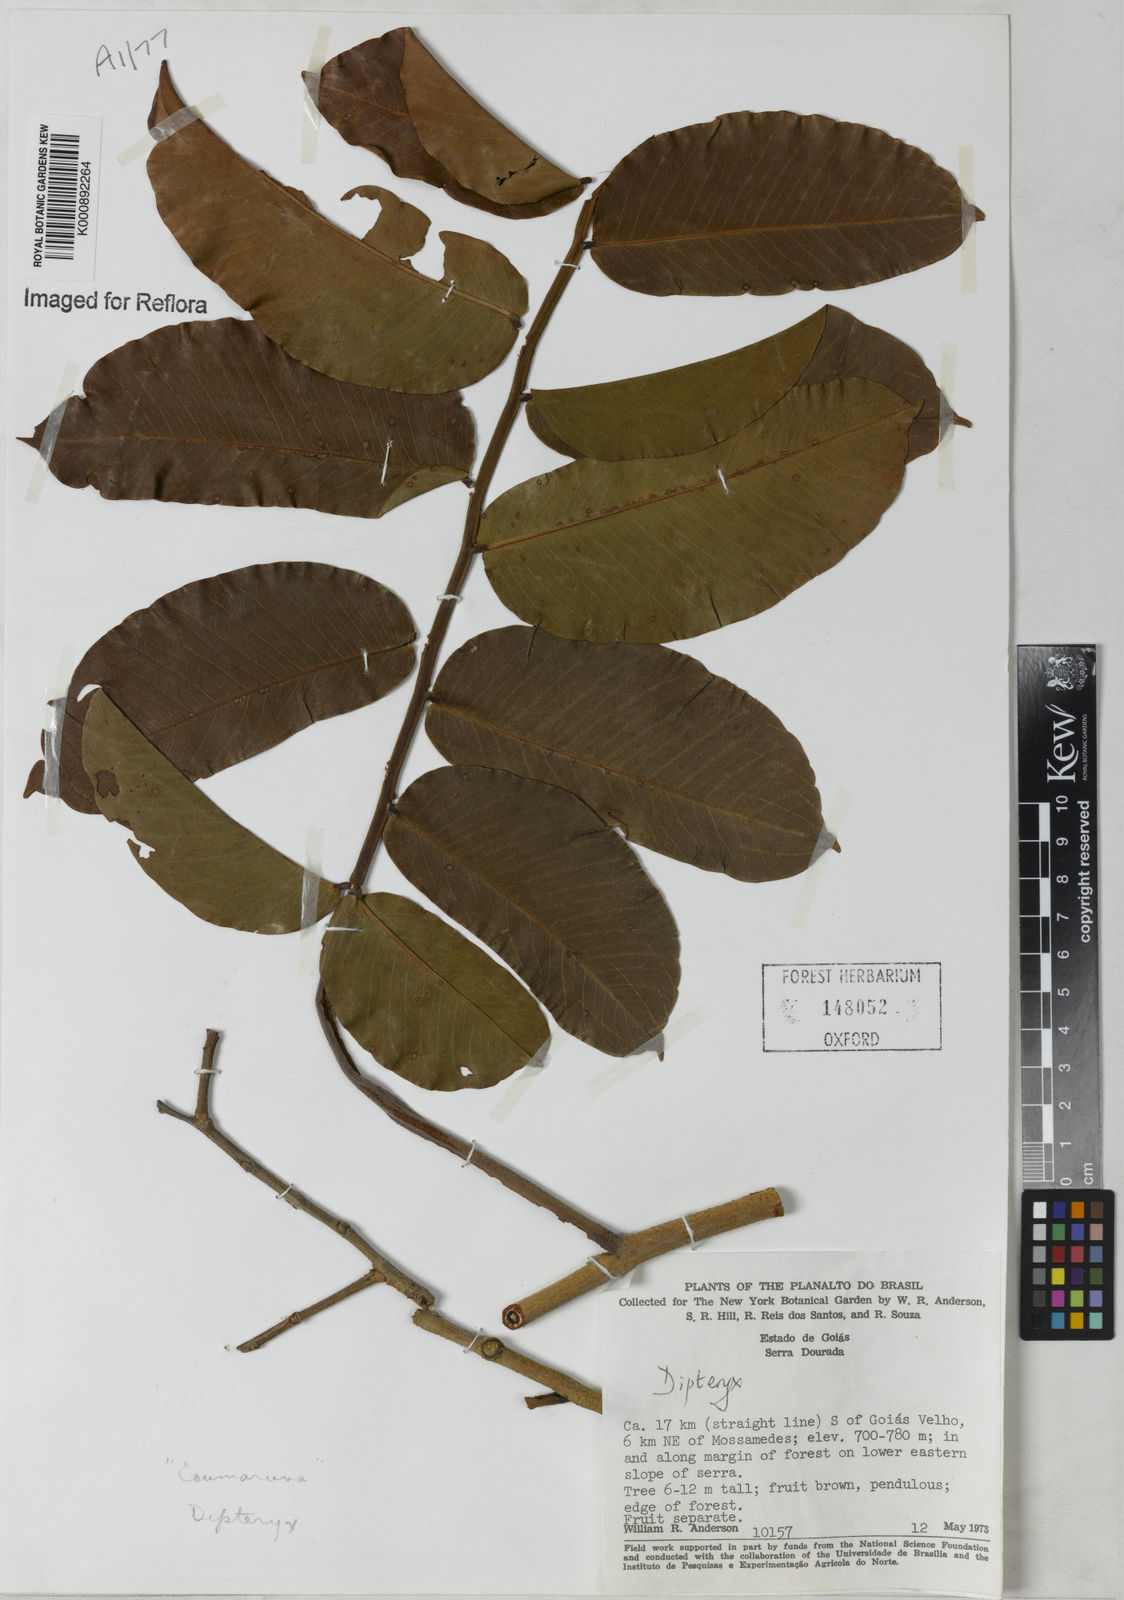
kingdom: Plantae
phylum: Tracheophyta
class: Magnoliopsida
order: Fabales
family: Fabaceae
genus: Dipteryx
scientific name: Dipteryx
